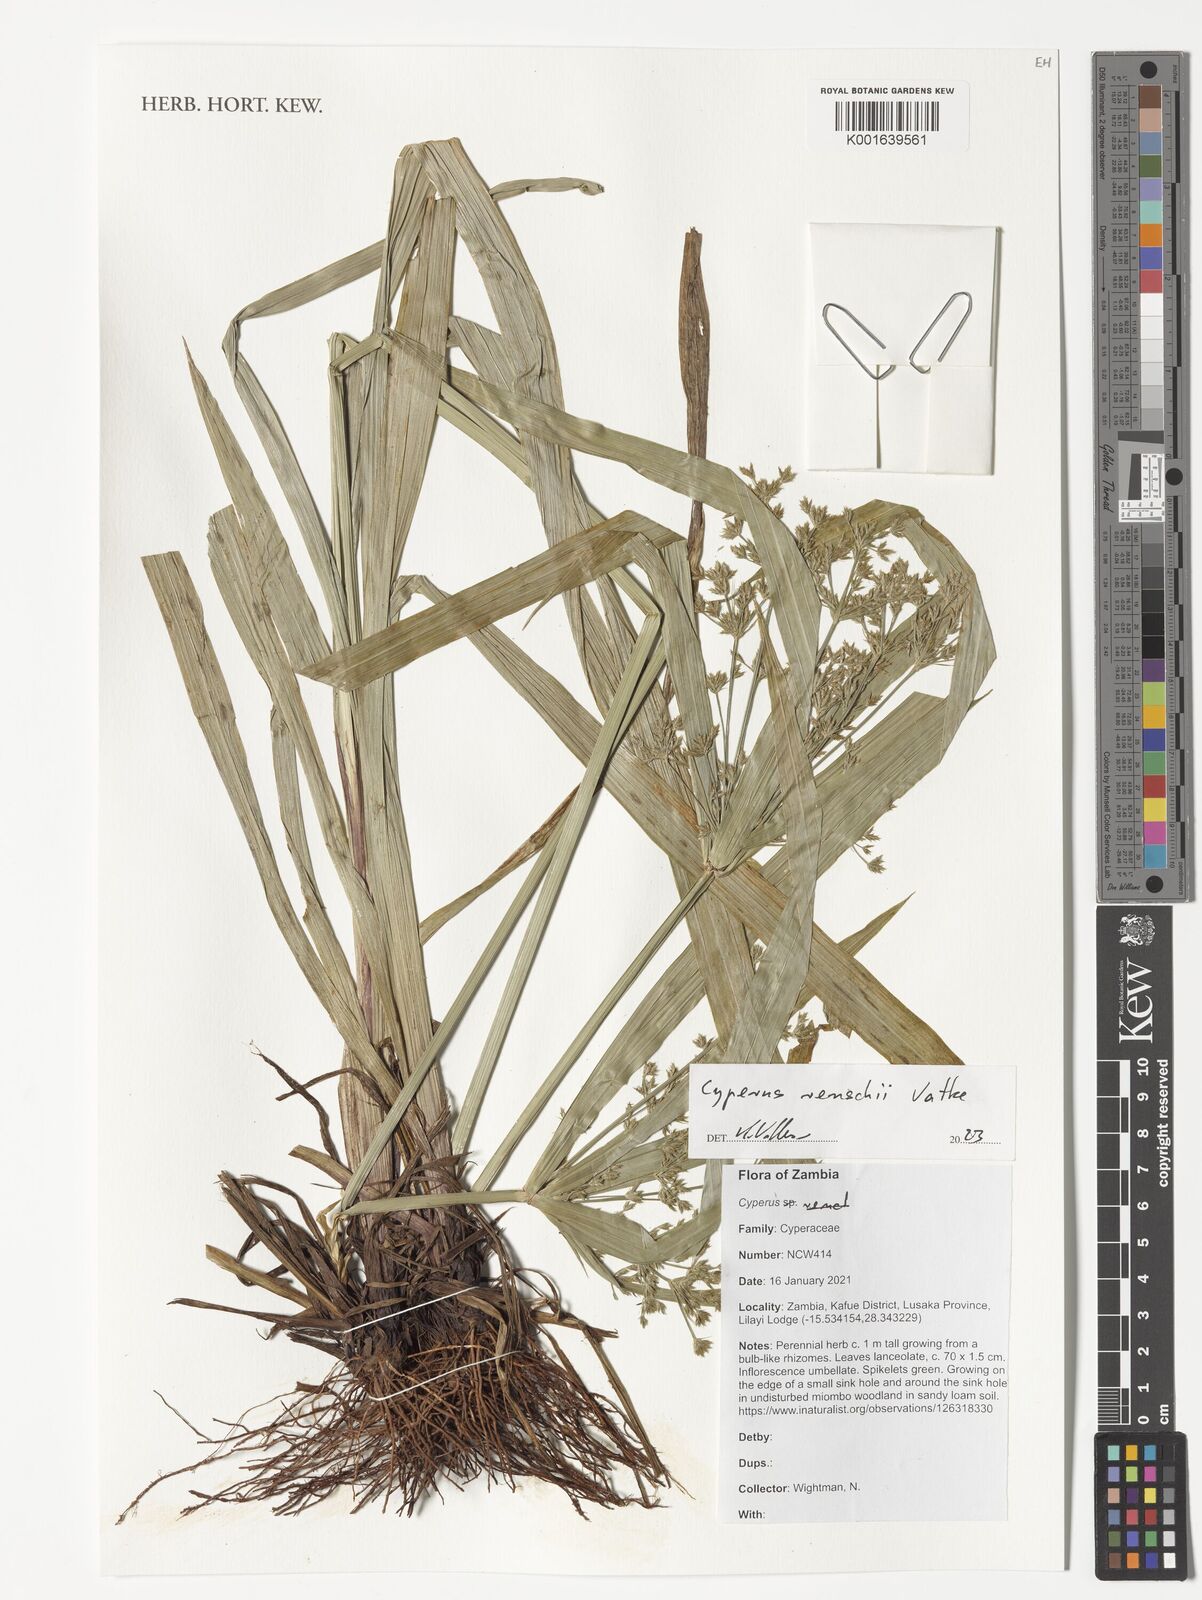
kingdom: Plantae
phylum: Tracheophyta
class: Liliopsida
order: Poales
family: Cyperaceae
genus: Cyperus
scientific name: Cyperus renschii
